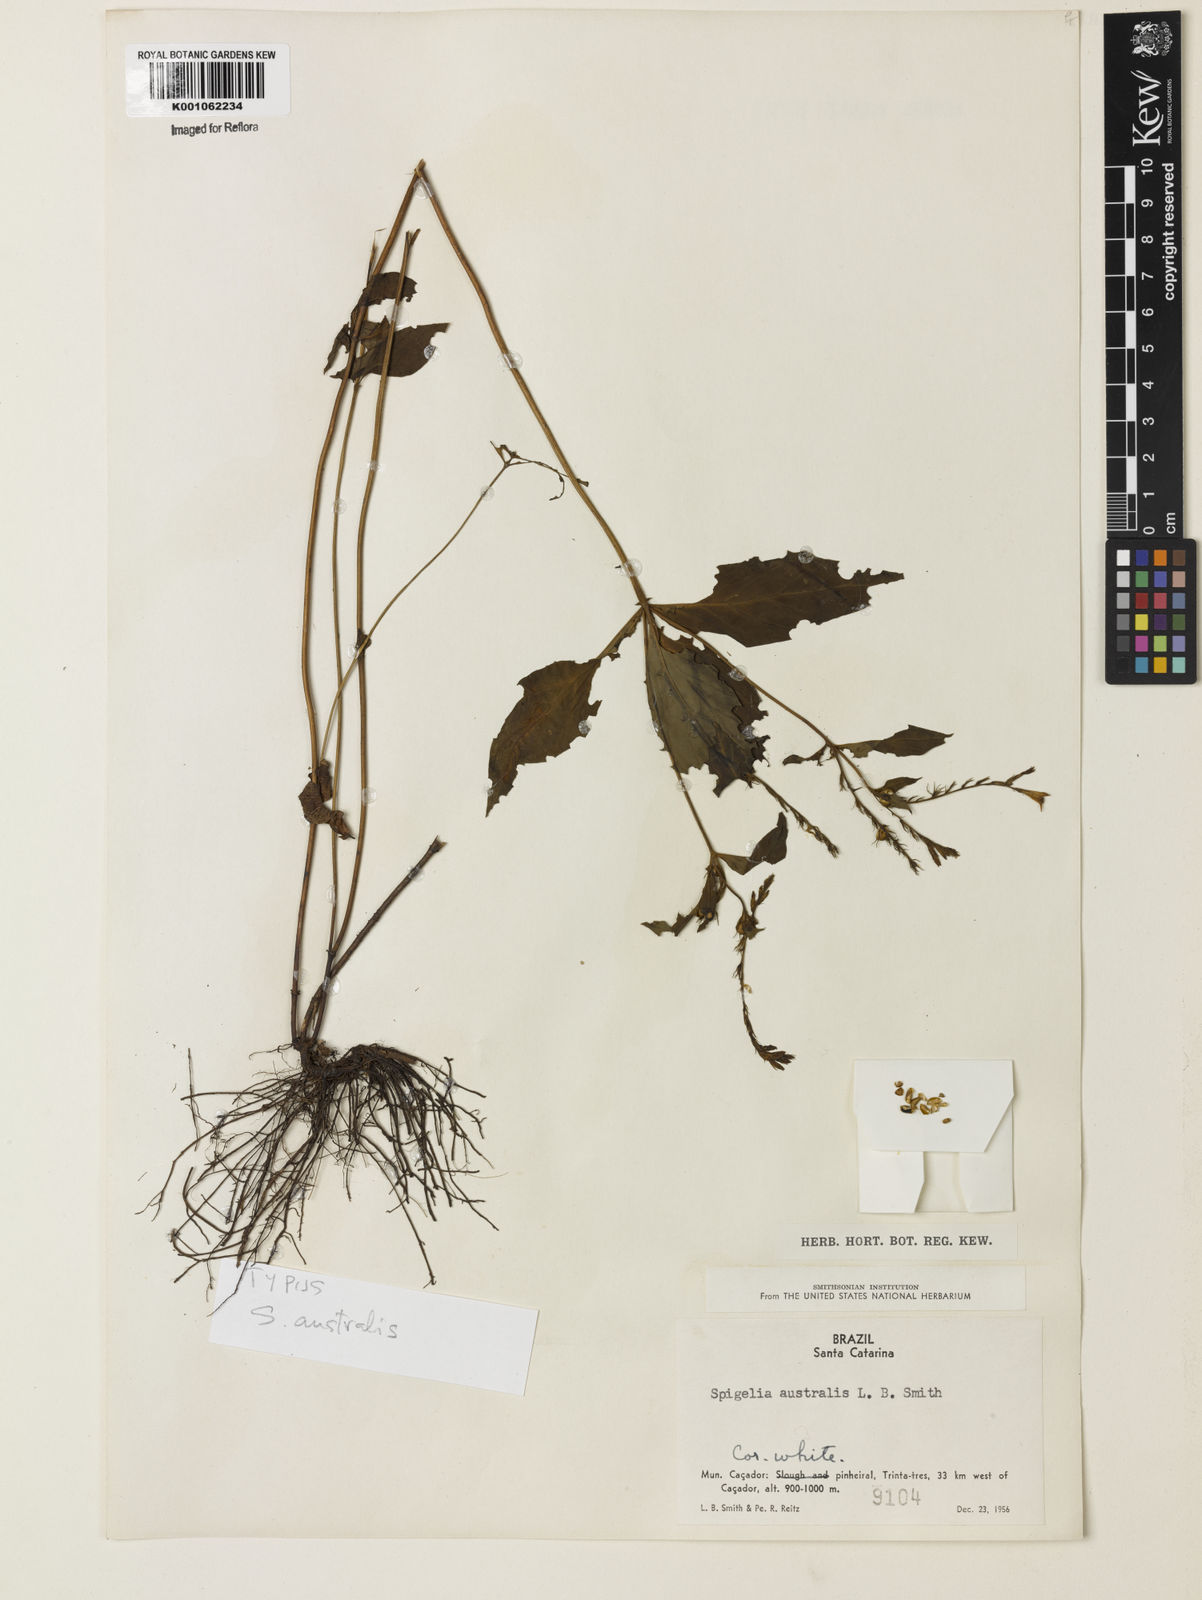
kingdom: Plantae
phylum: Tracheophyta
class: Magnoliopsida
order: Gentianales
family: Loganiaceae
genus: Spigelia
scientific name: Spigelia humboldtiana
